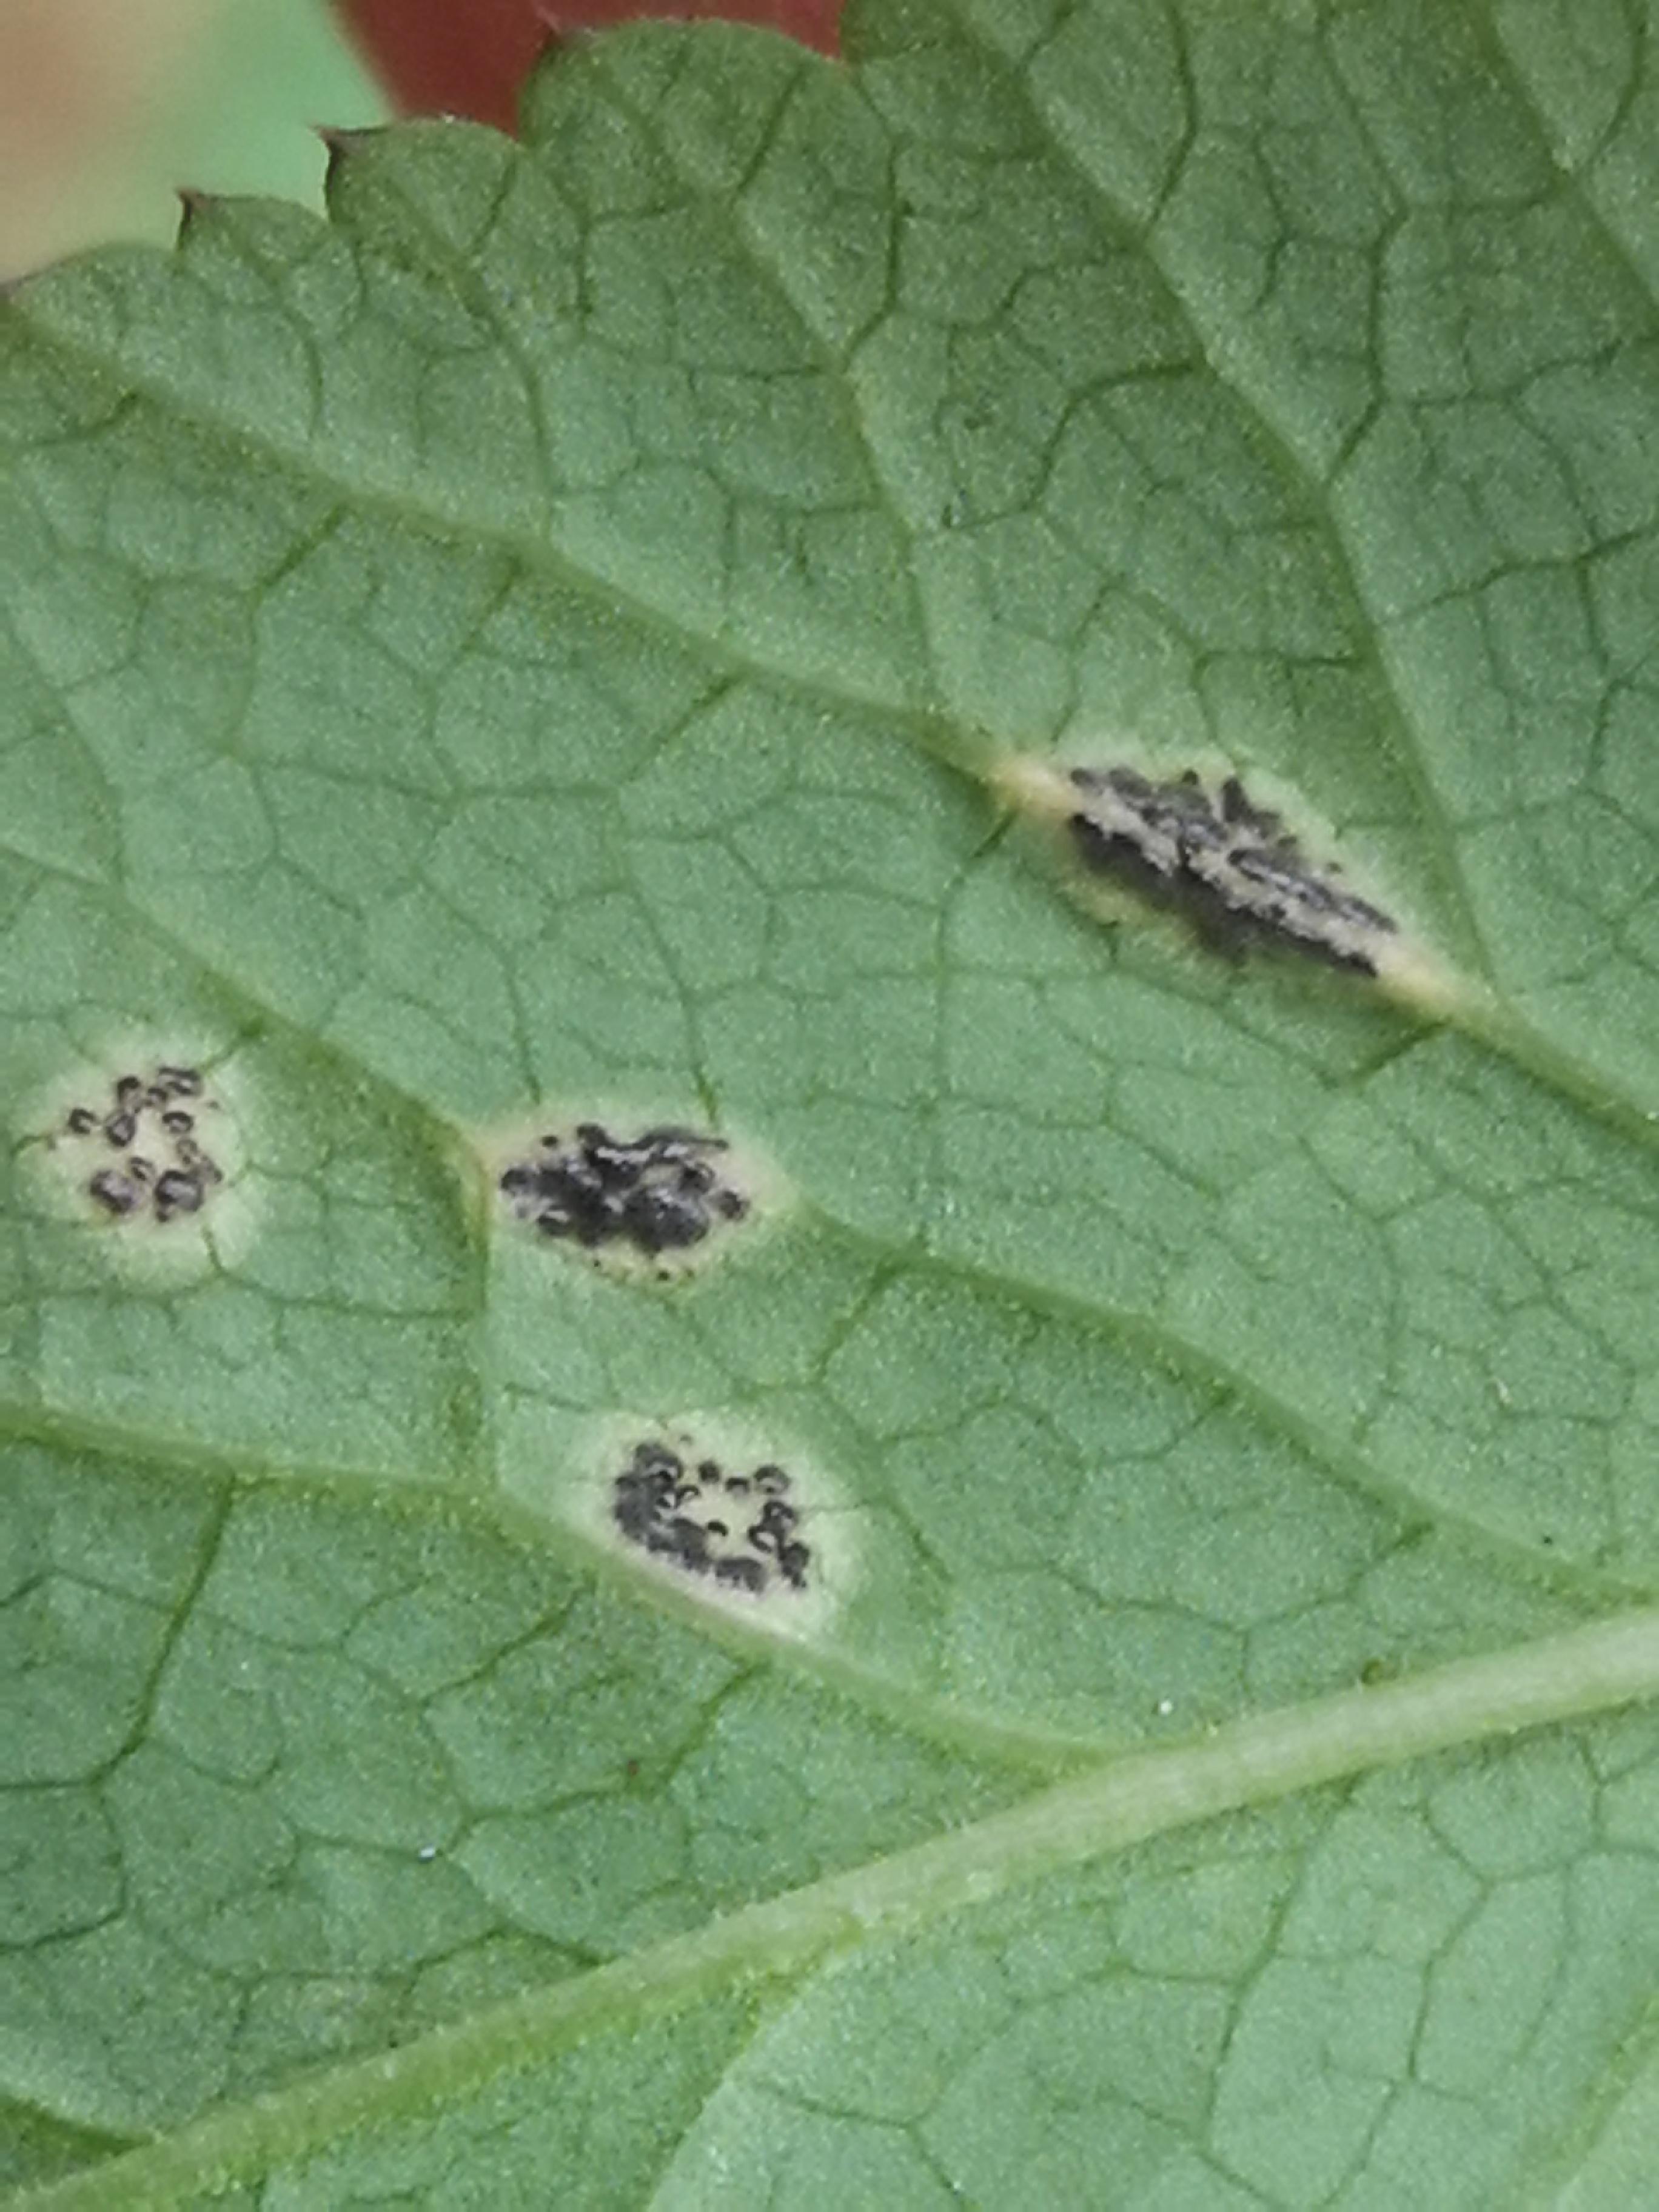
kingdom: Fungi
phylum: Basidiomycota
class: Pucciniomycetes
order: Pucciniales
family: Pucciniaceae
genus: Puccinia
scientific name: Puccinia
